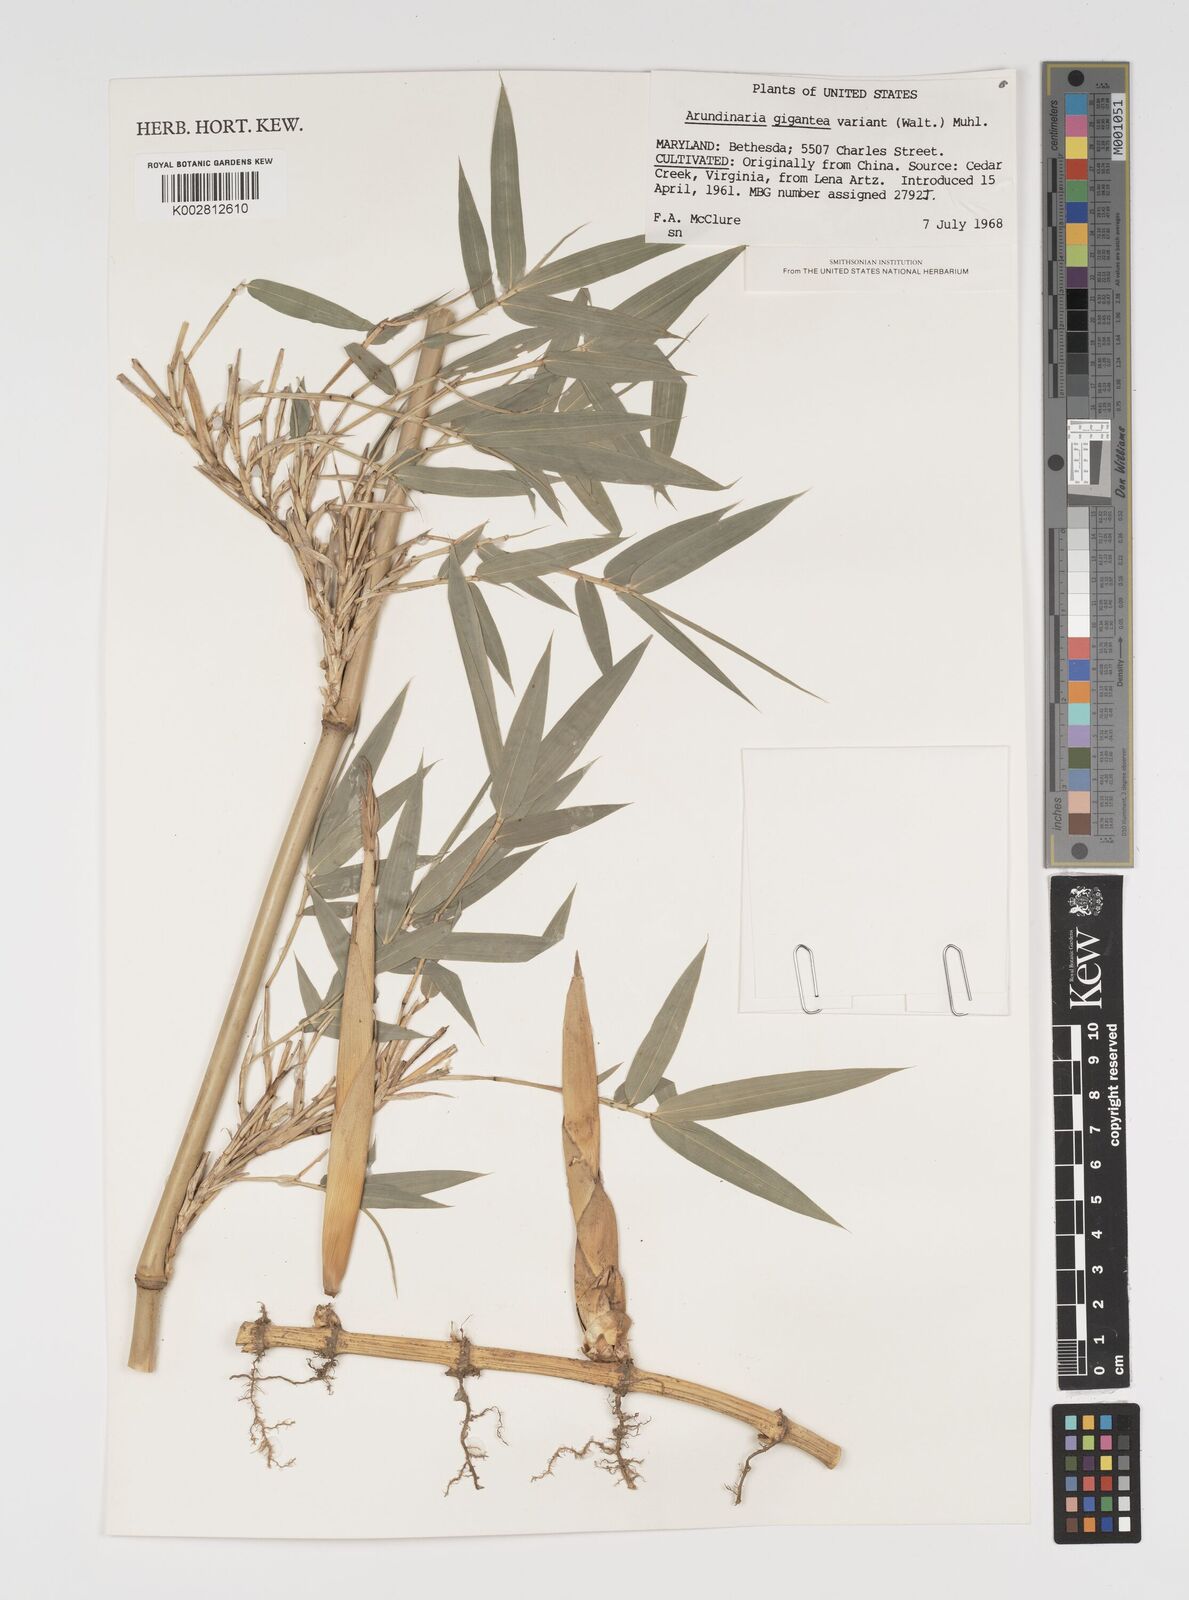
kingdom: Plantae
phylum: Tracheophyta
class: Liliopsida
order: Poales
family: Poaceae
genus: Arundinaria
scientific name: Arundinaria
